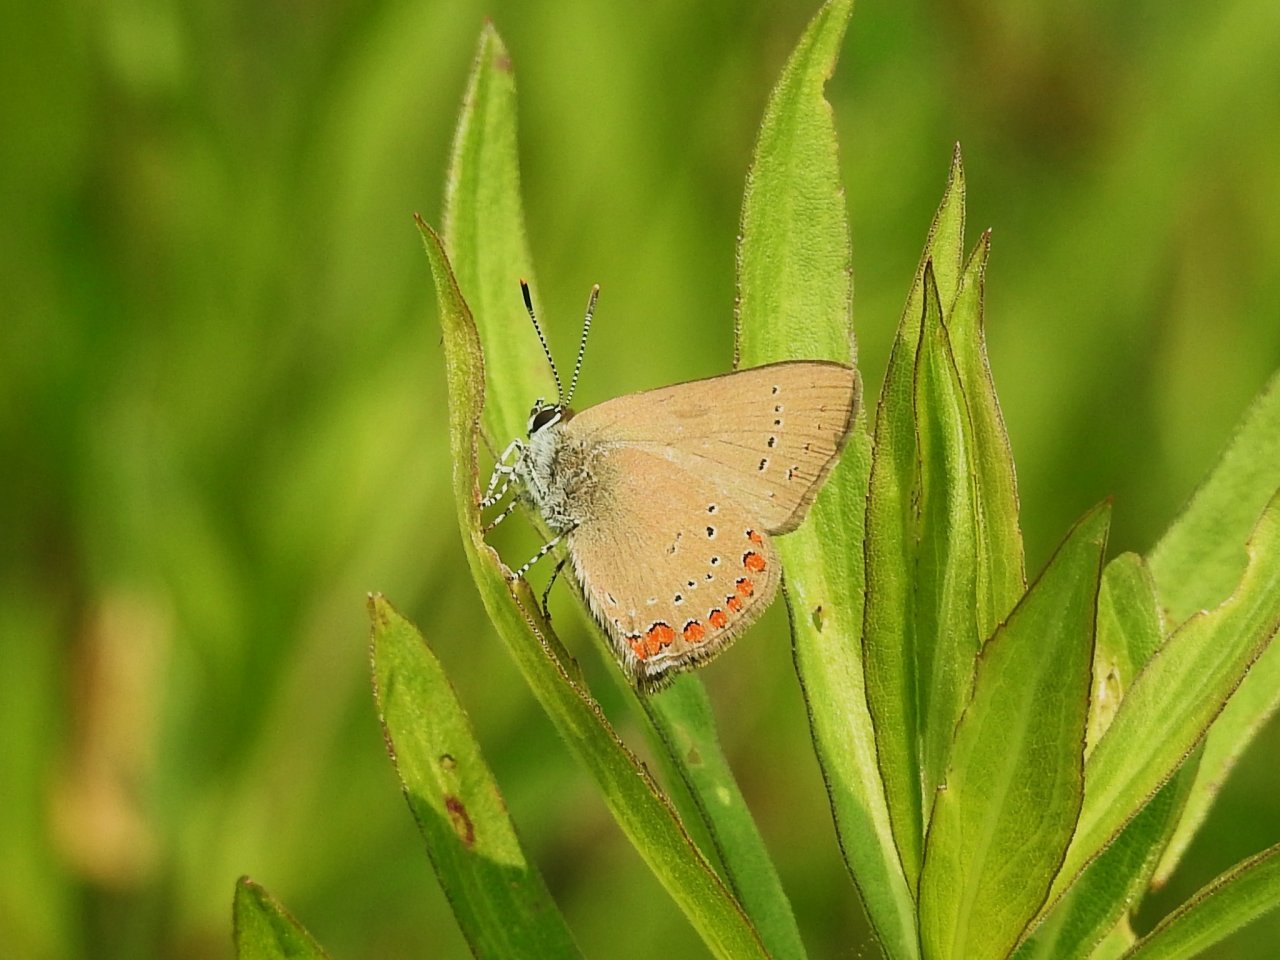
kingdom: Animalia
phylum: Arthropoda
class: Insecta
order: Lepidoptera
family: Lycaenidae
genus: Harkenclenus
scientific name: Harkenclenus titus
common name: Coral Hairstreak
